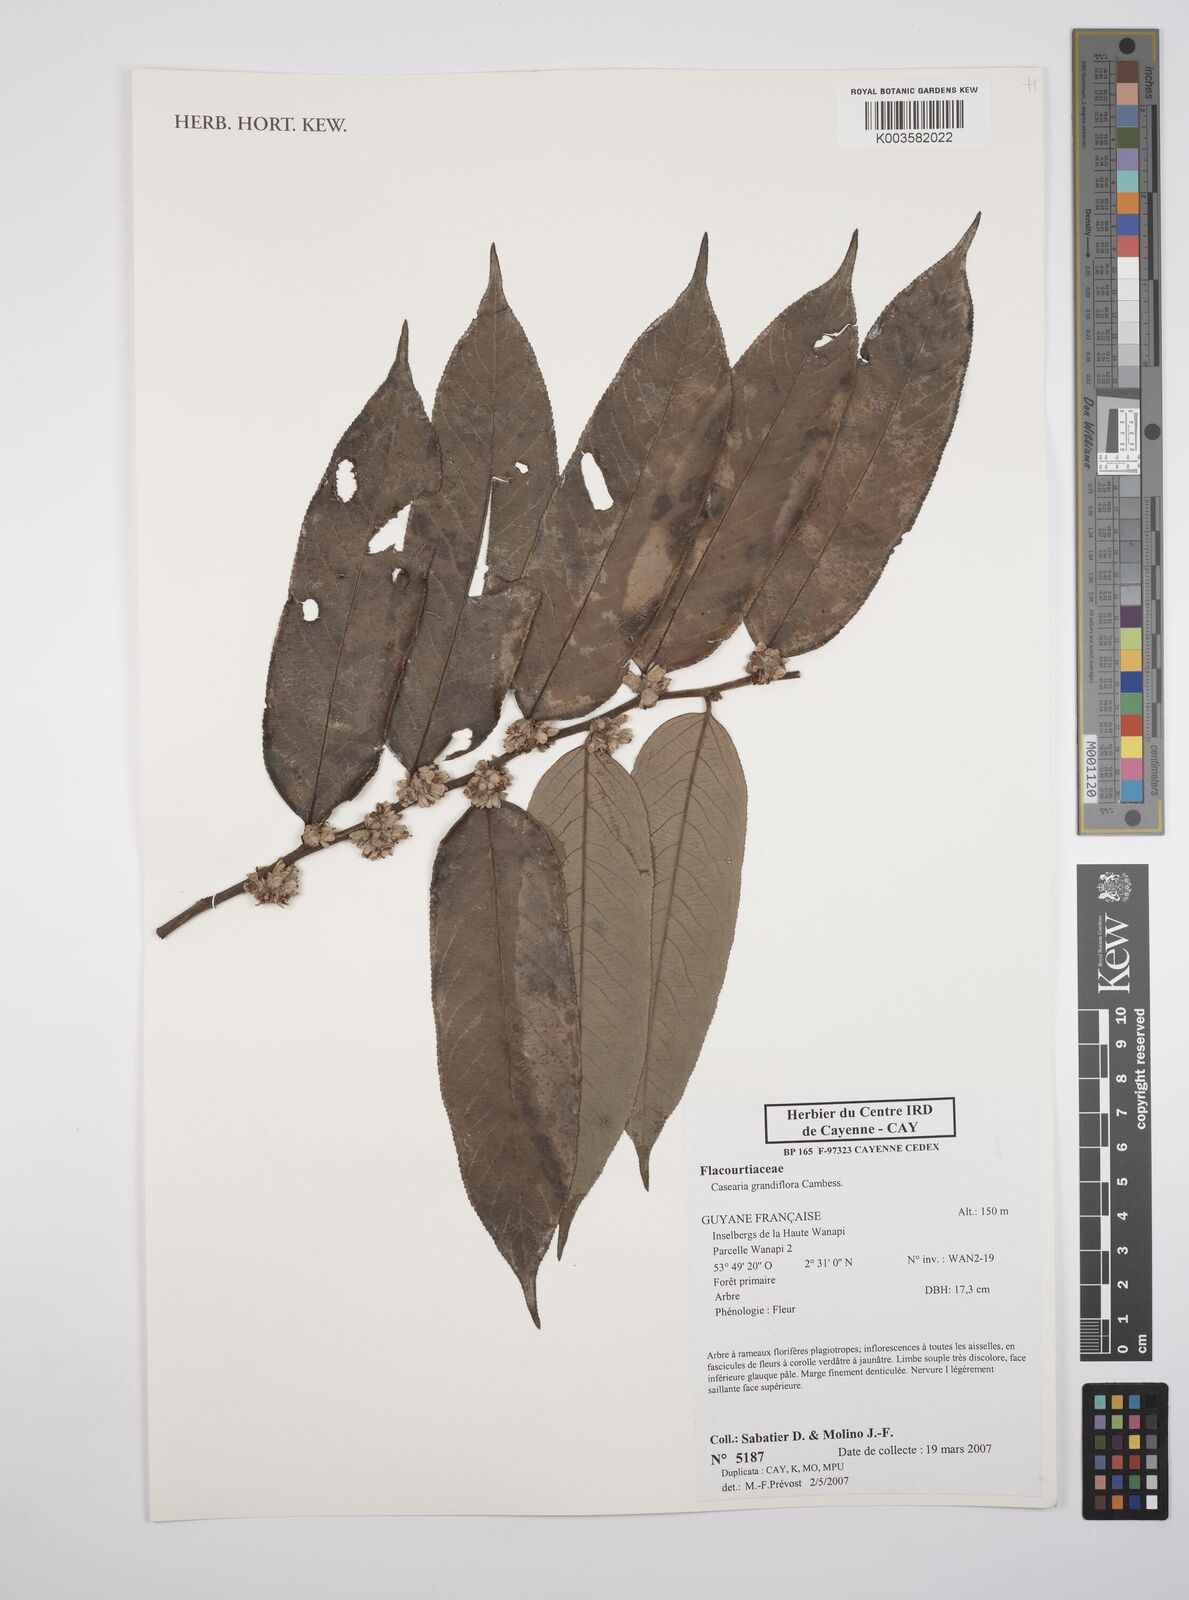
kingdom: Plantae
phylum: Tracheophyta
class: Magnoliopsida
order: Malpighiales
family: Salicaceae
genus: Casearia
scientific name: Casearia grandiflora
